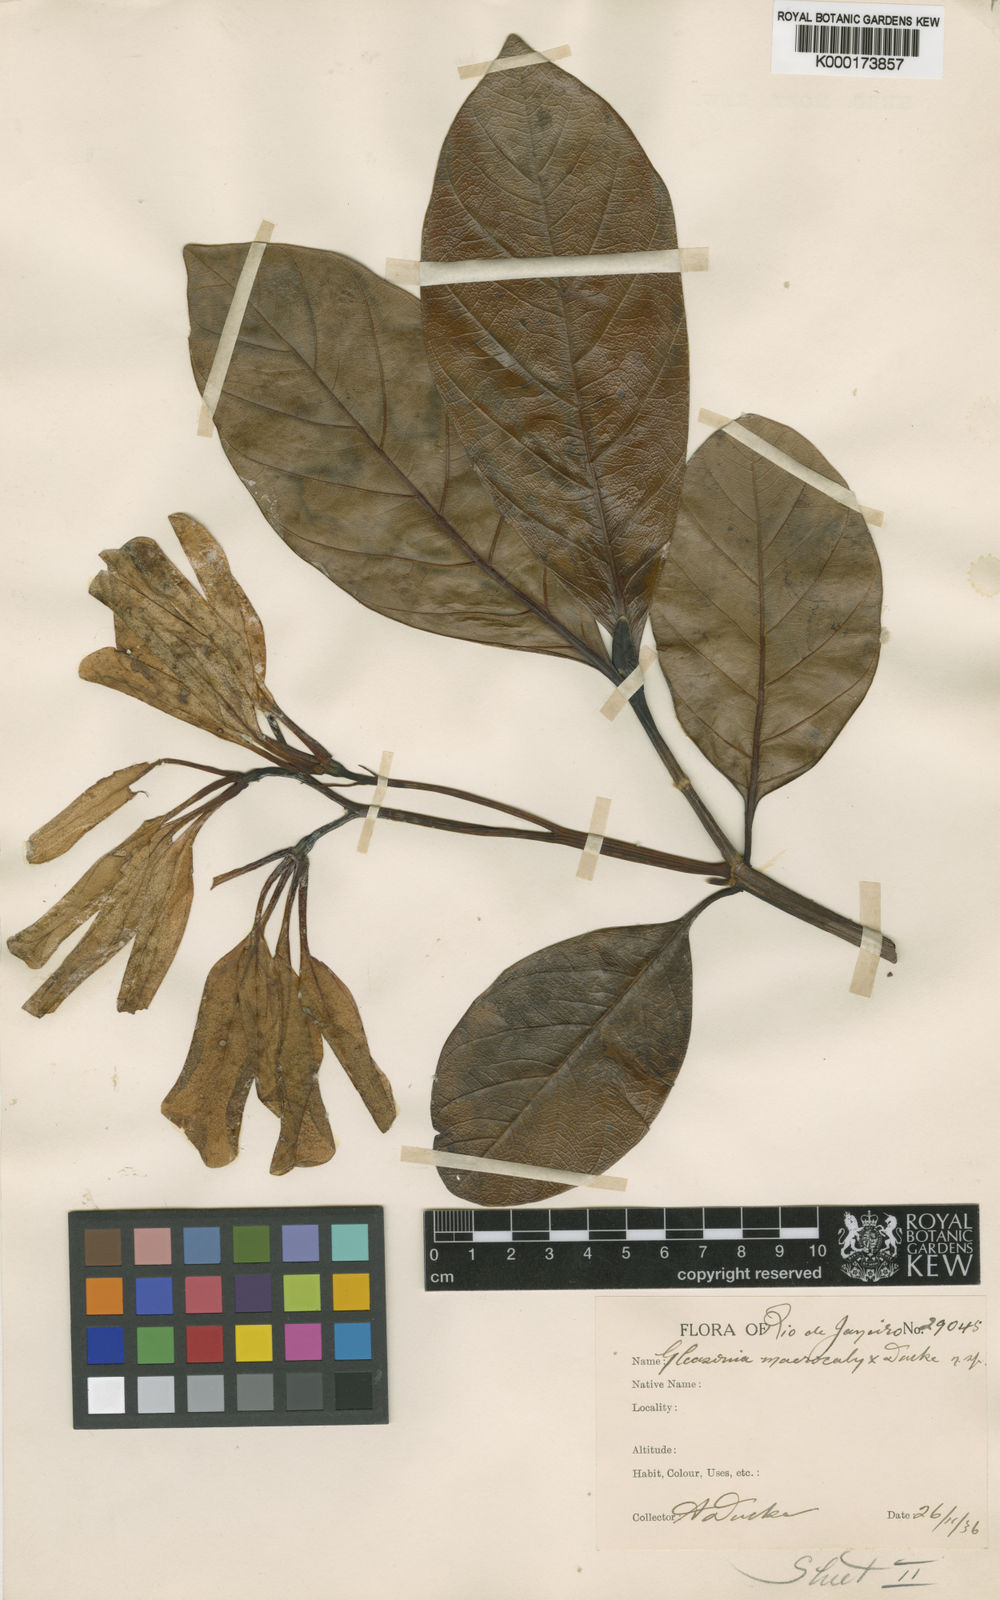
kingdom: Plantae
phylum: Tracheophyta
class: Magnoliopsida
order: Gentianales
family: Rubiaceae
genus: Gleasonia
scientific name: Gleasonia macrocalyx
